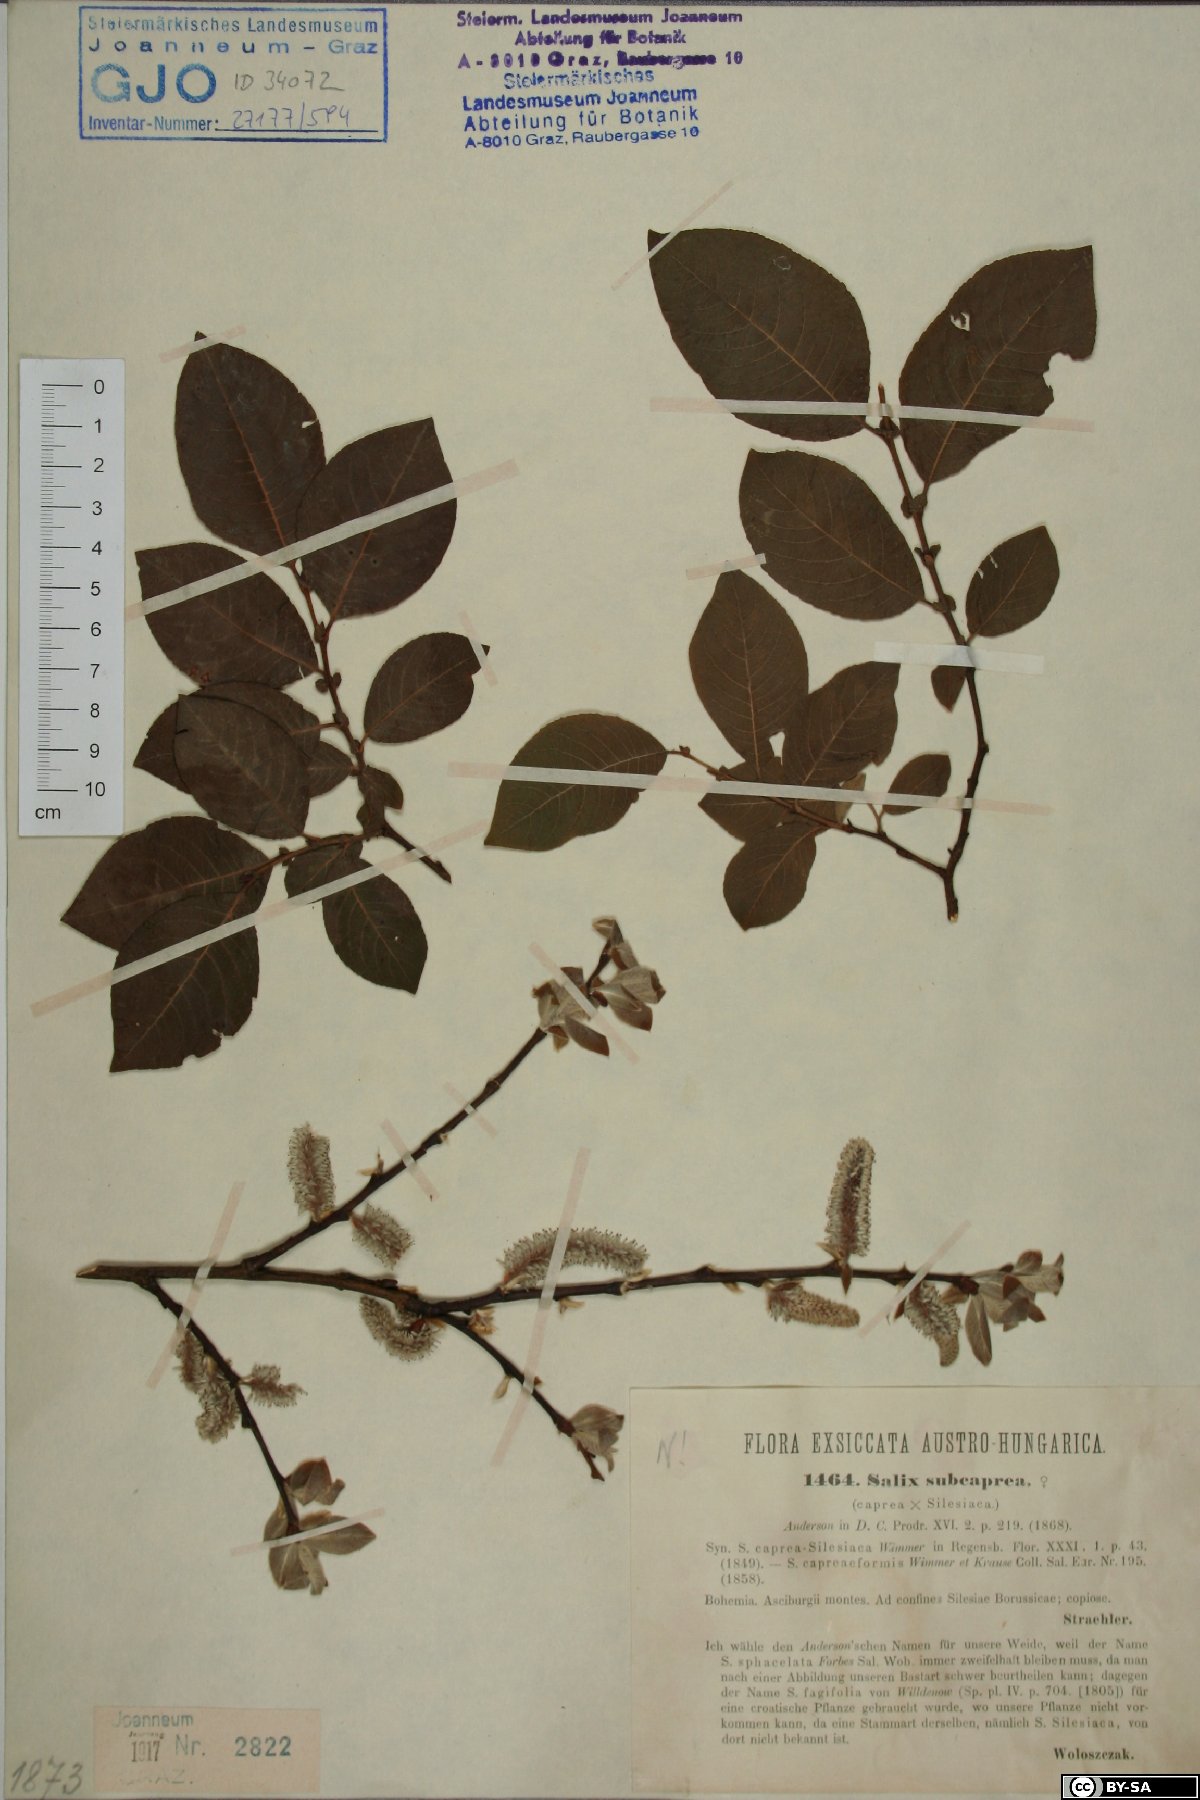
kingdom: Plantae
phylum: Tracheophyta
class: Magnoliopsida
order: Malpighiales
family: Salicaceae
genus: Salix
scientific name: Salix subcaprea
